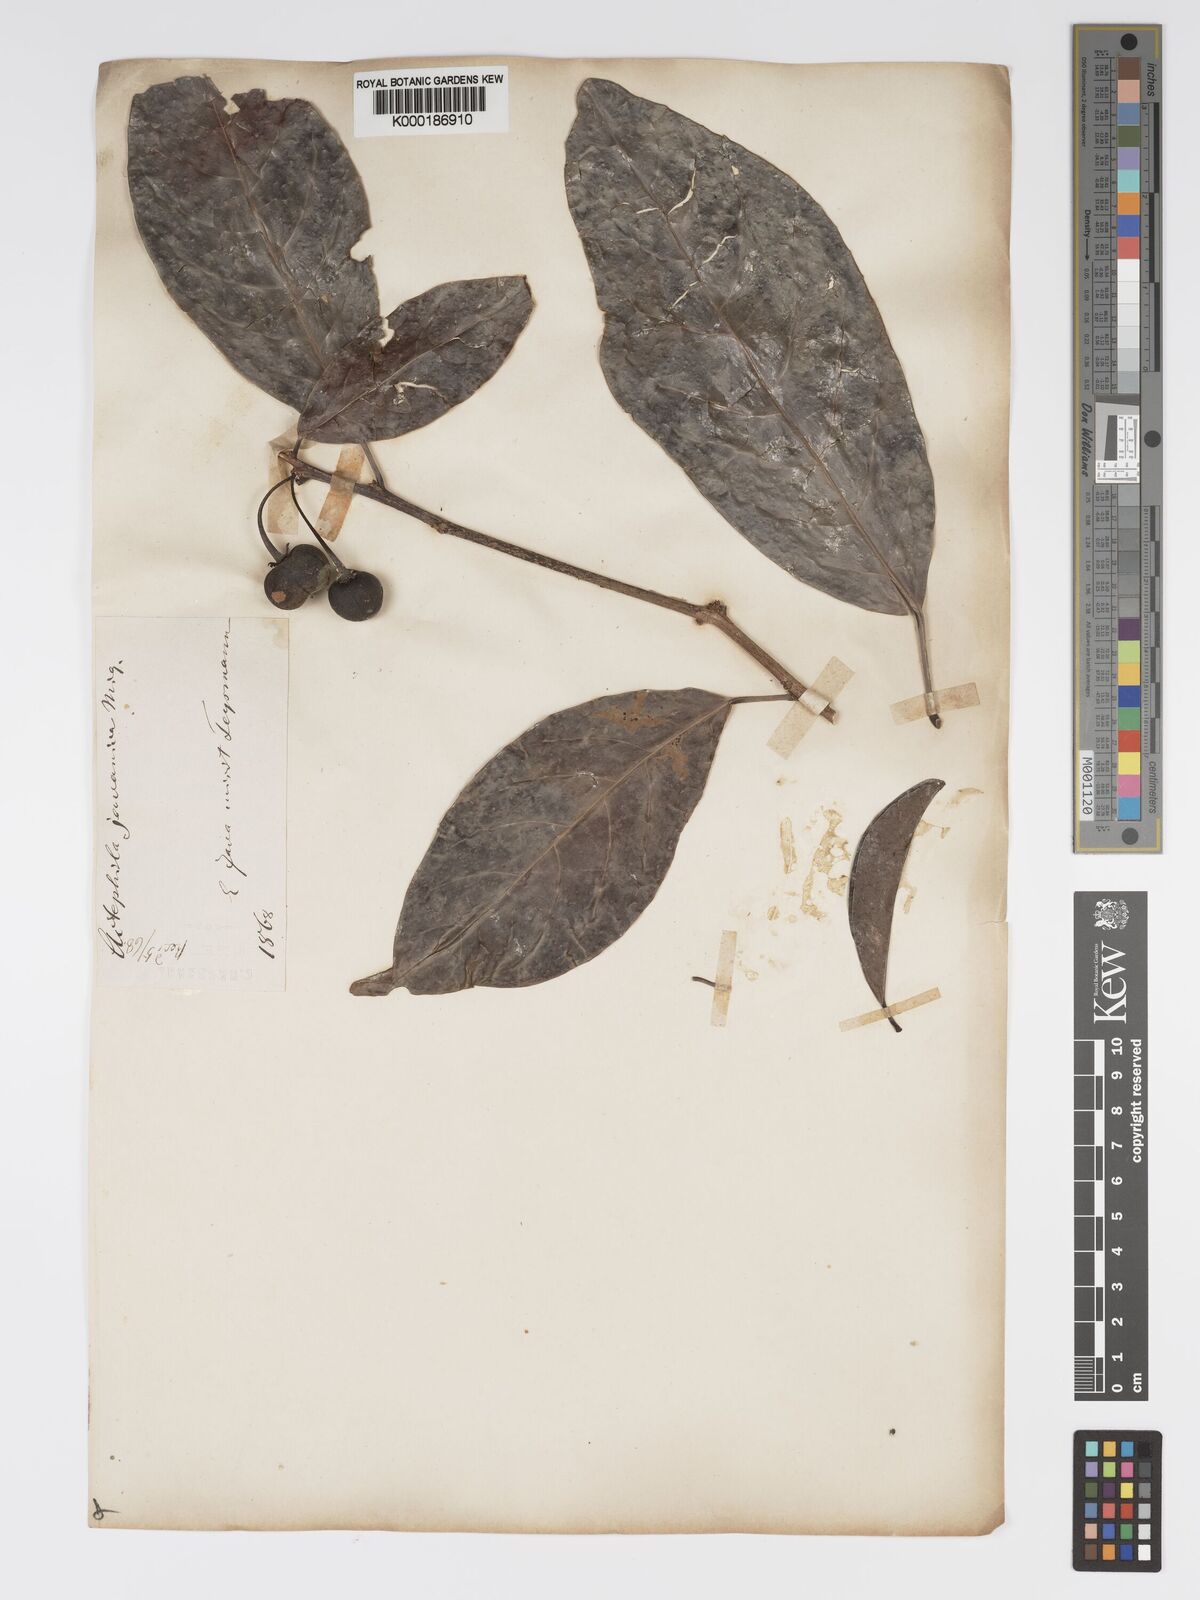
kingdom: Plantae
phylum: Tracheophyta
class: Magnoliopsida
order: Malpighiales
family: Phyllanthaceae
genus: Actephila
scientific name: Actephila
